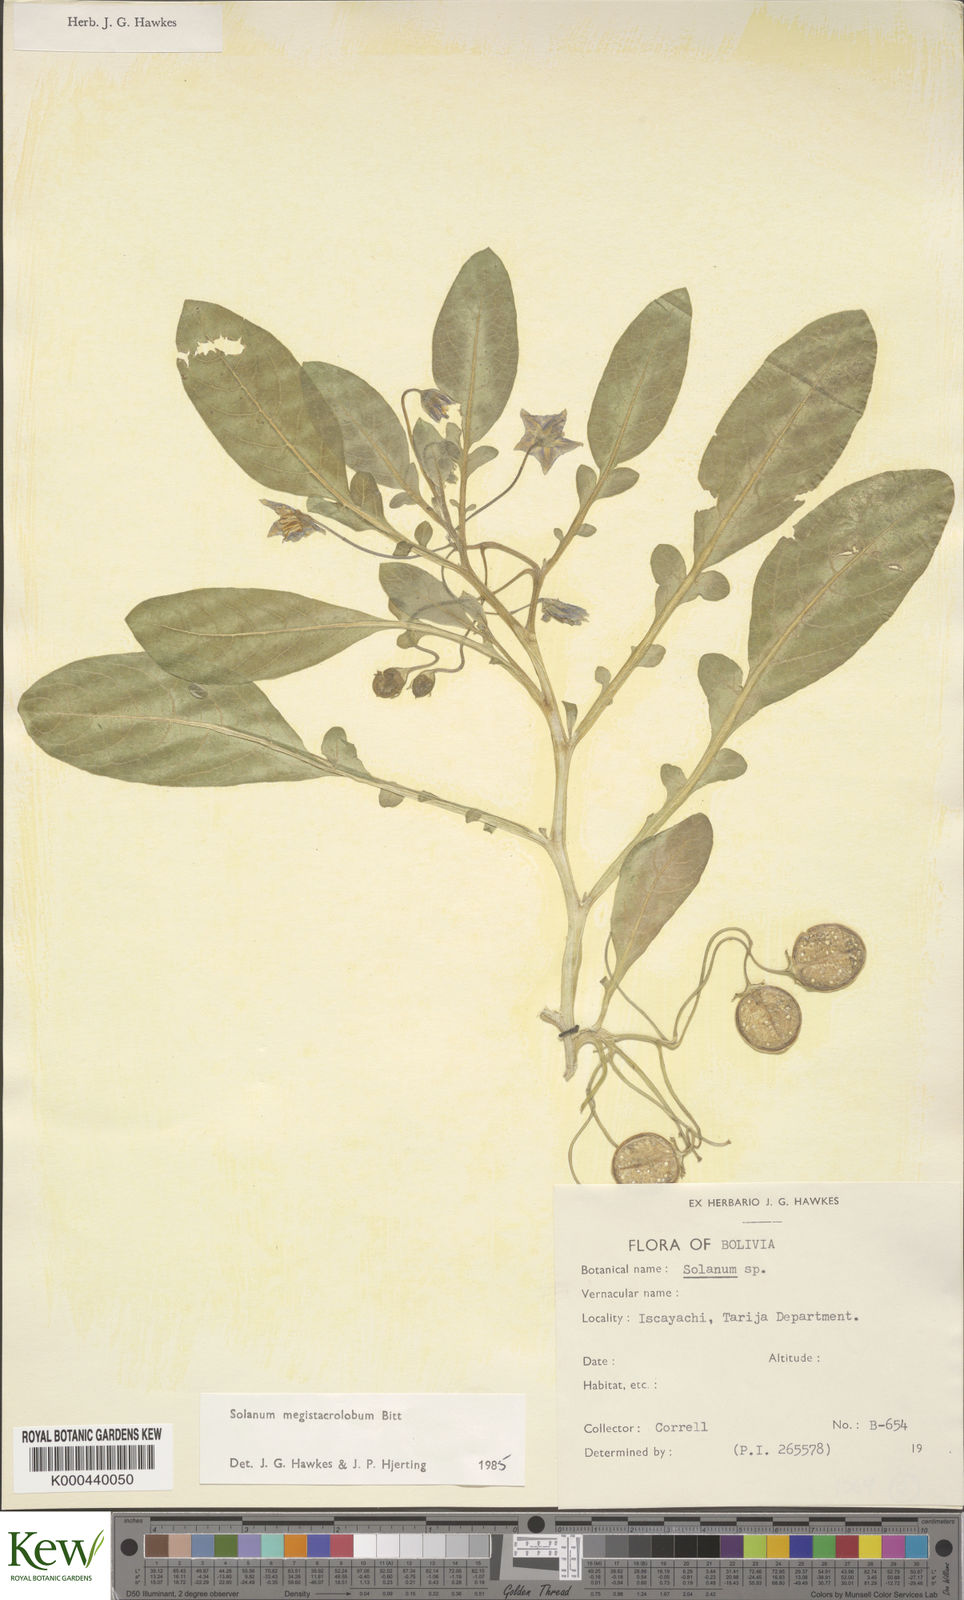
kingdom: Plantae
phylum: Tracheophyta
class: Magnoliopsida
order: Solanales
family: Solanaceae
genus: Solanum
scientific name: Solanum boliviense
